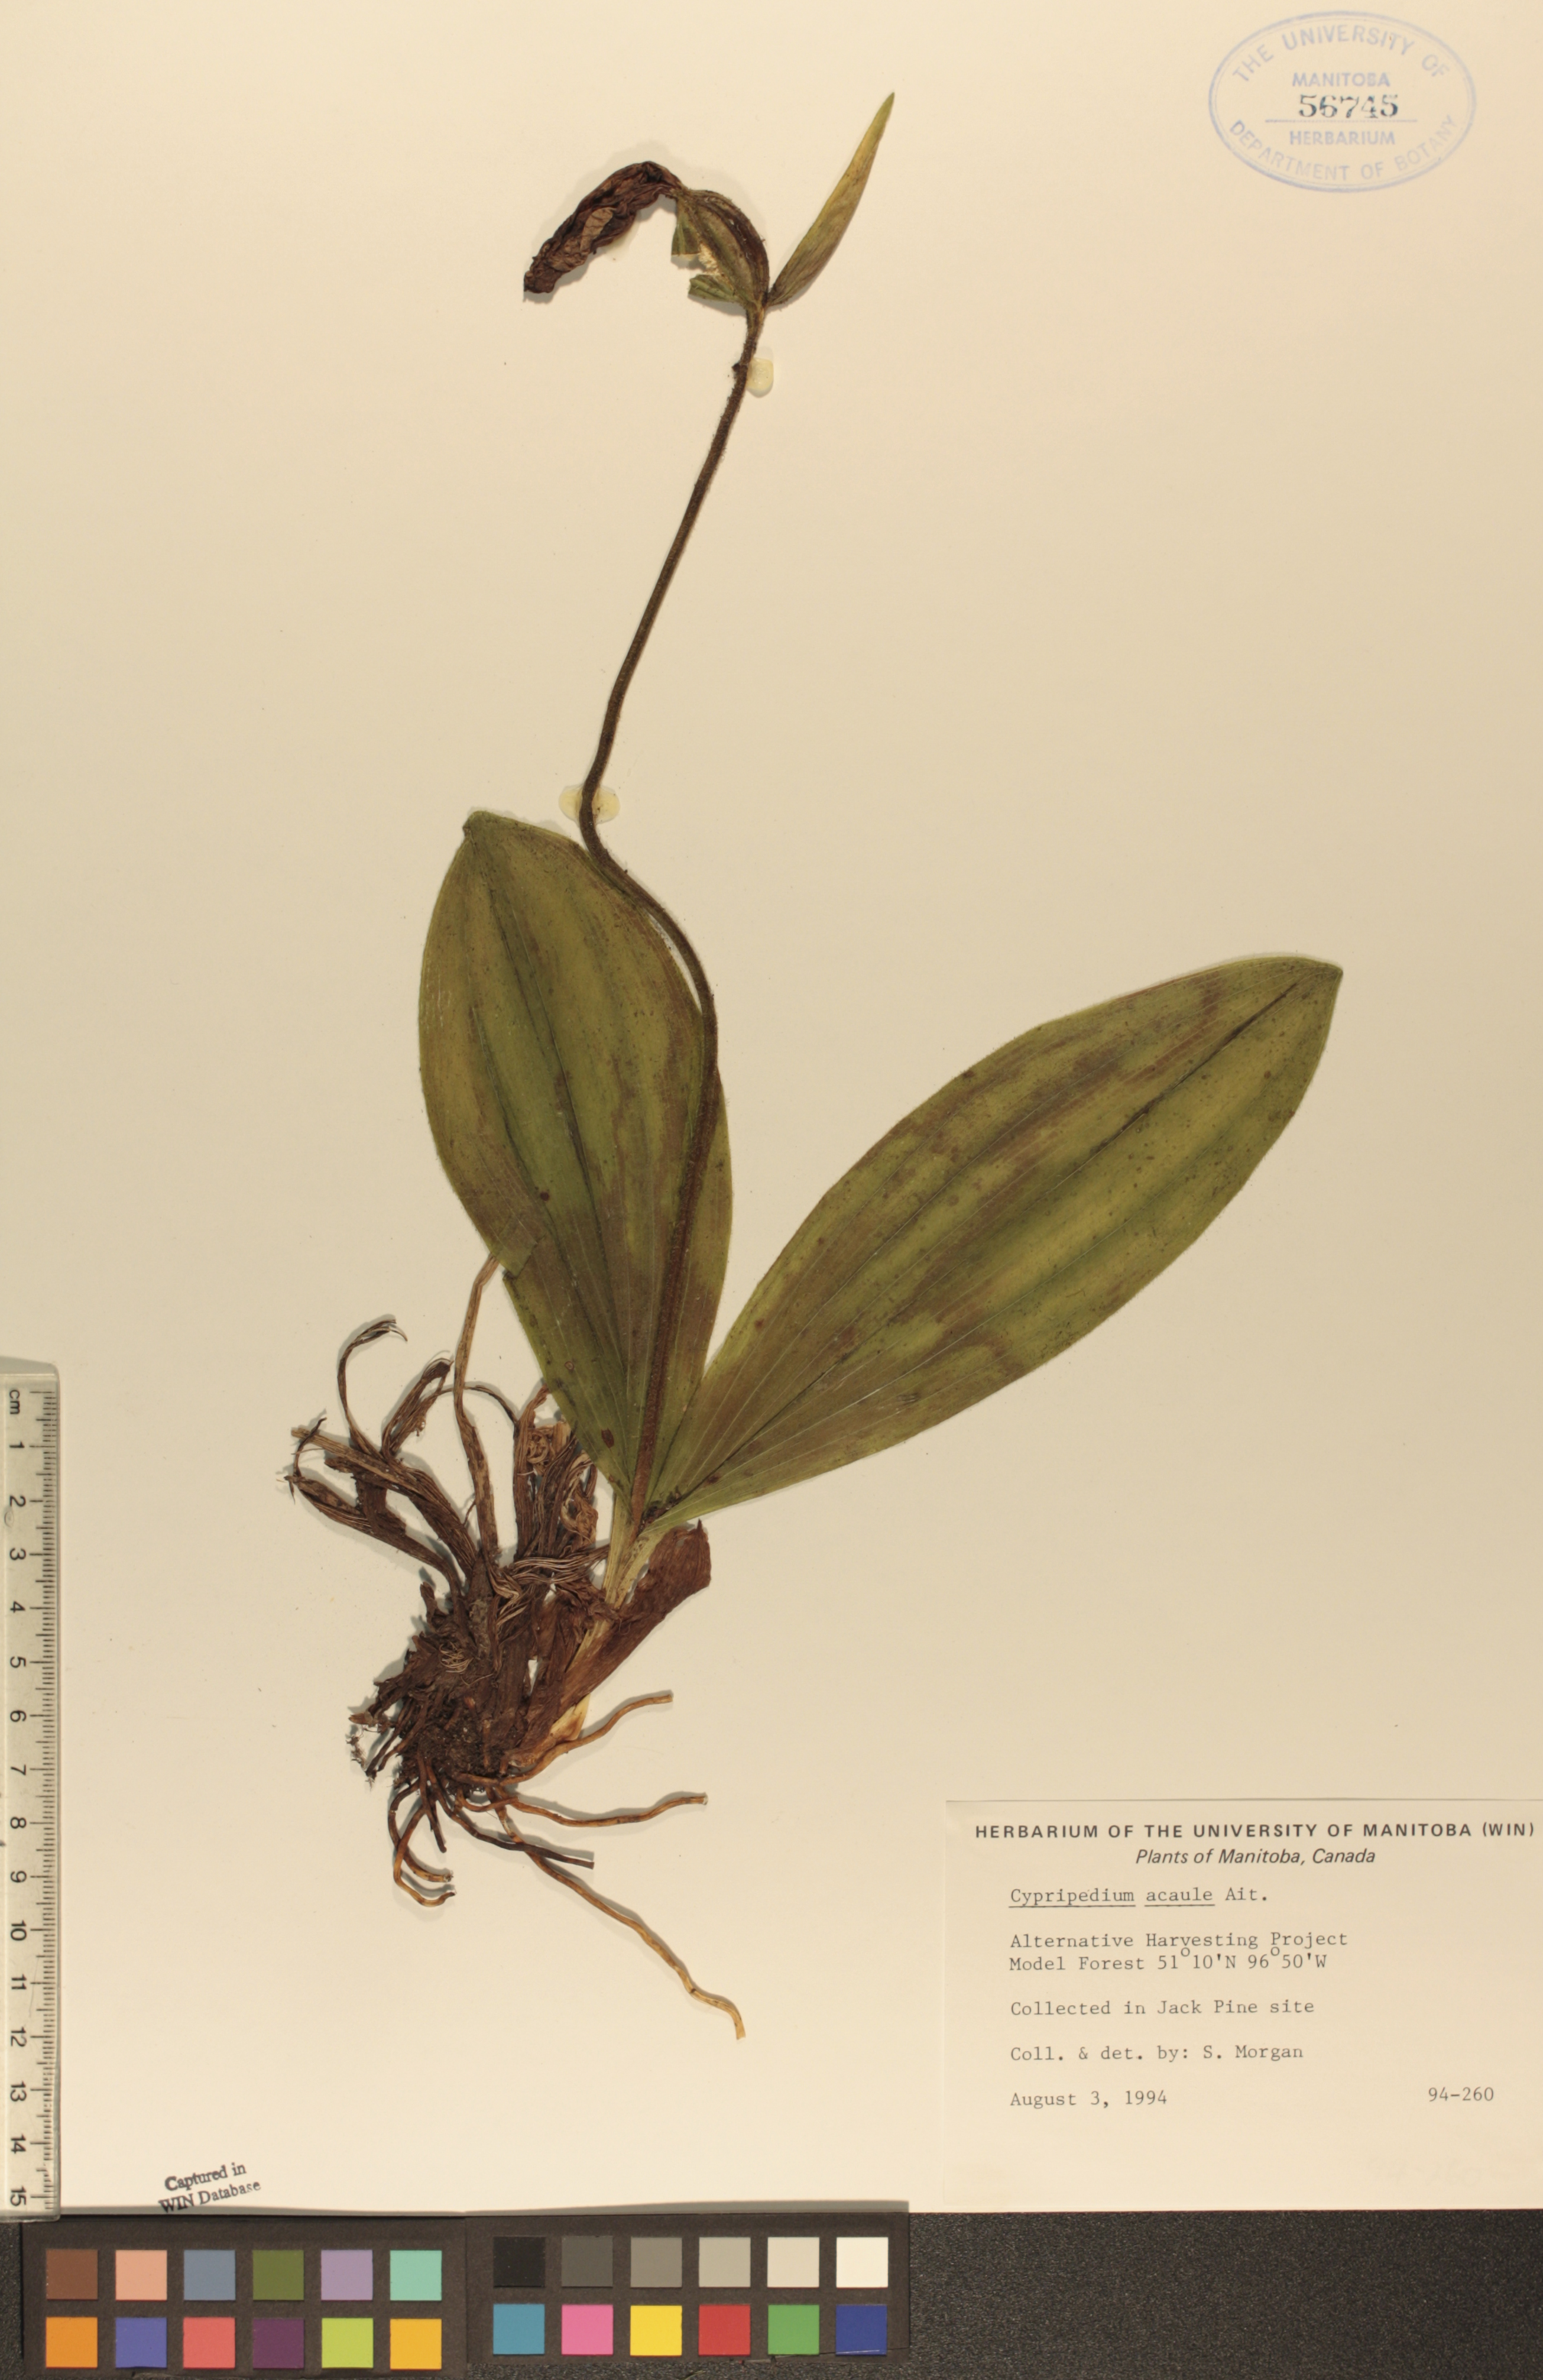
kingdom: Plantae
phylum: Tracheophyta
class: Liliopsida
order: Asparagales
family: Orchidaceae
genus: Cypripedium
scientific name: Cypripedium acaule
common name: Pink lady's-slipper
